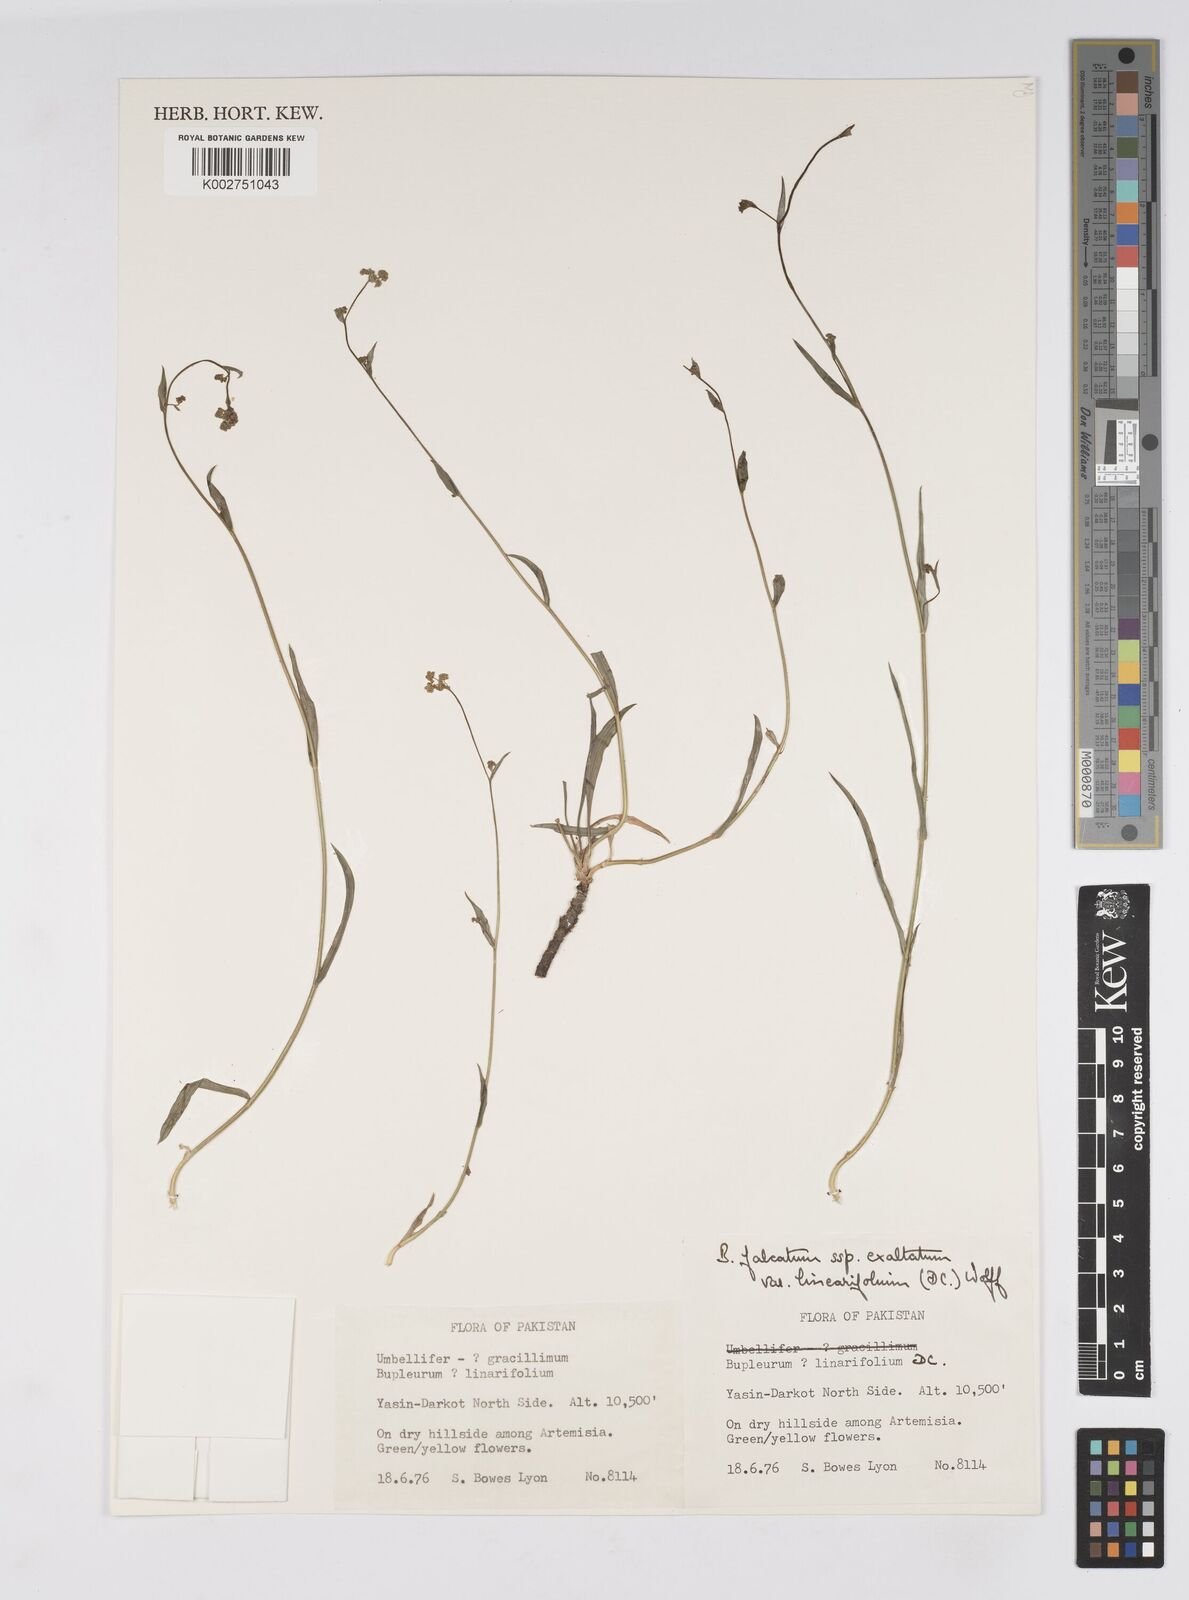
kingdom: Plantae
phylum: Tracheophyta
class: Magnoliopsida
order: Apiales
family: Apiaceae
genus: Bupleurum
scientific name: Bupleurum exaltatum
